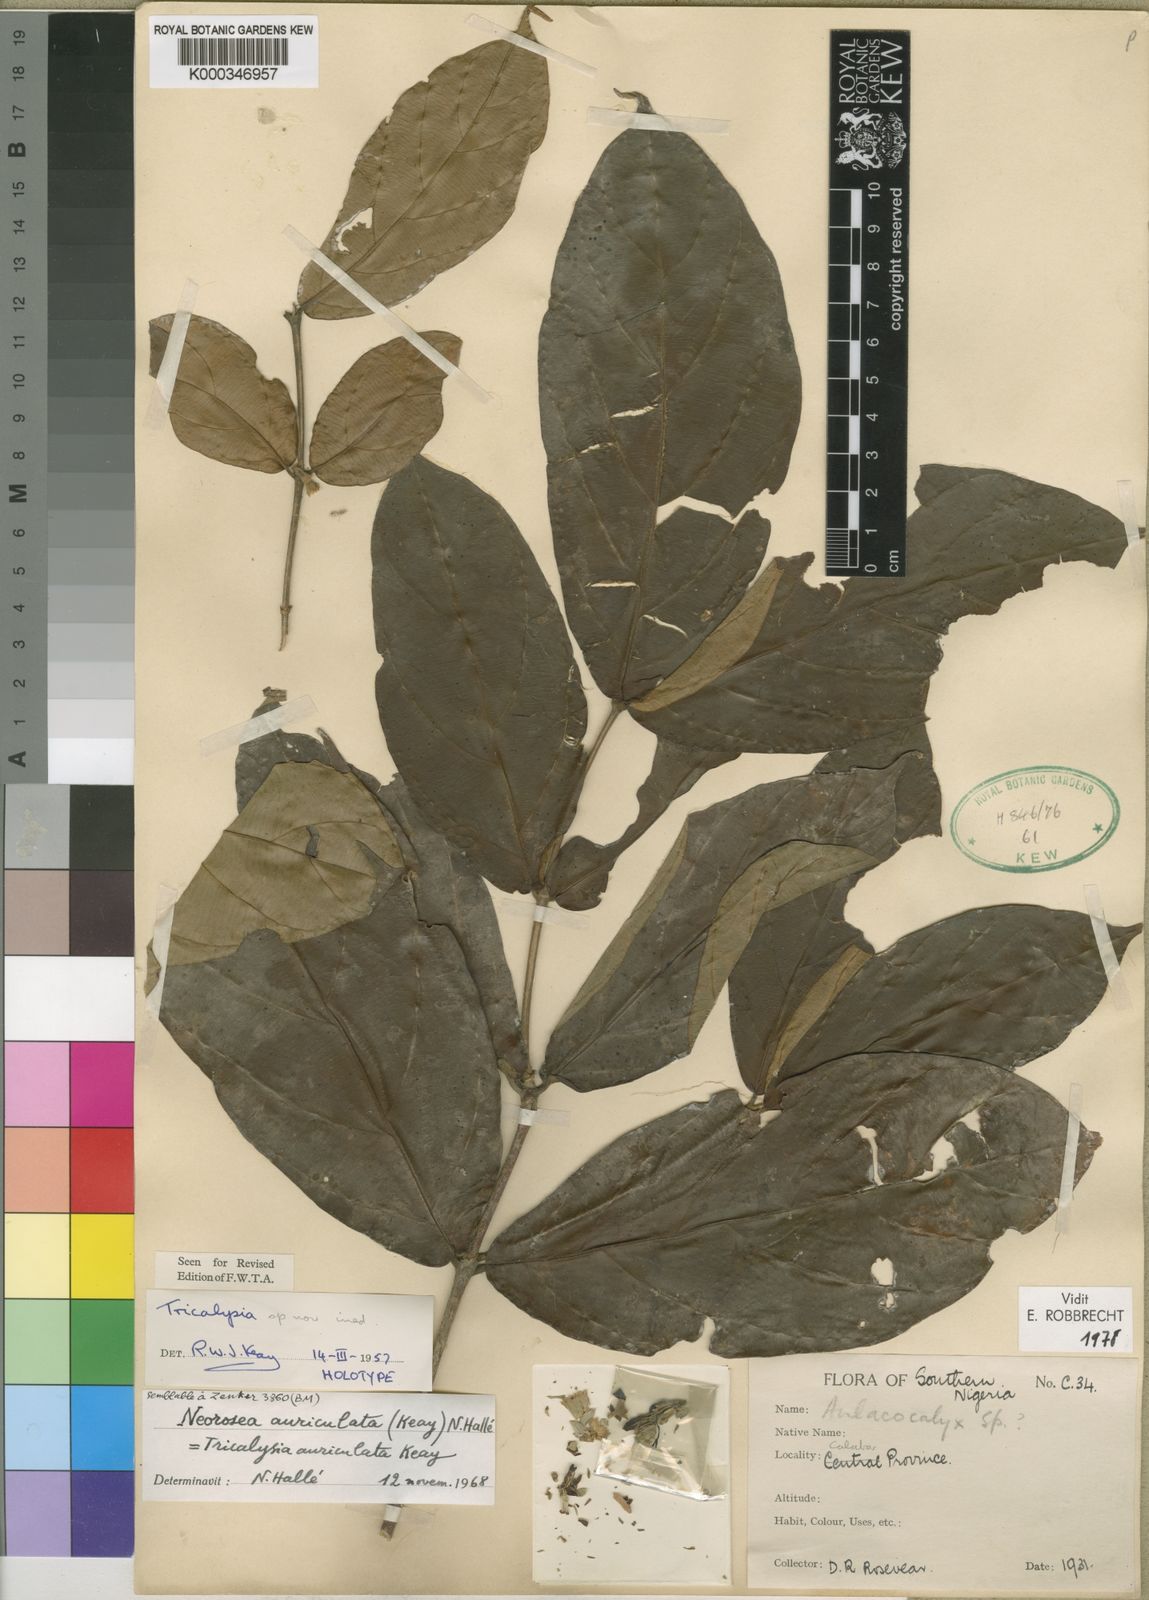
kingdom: Plantae
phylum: Tracheophyta
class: Magnoliopsida
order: Gentianales
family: Rubiaceae
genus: Sericanthe
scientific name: Sericanthe auriculata
